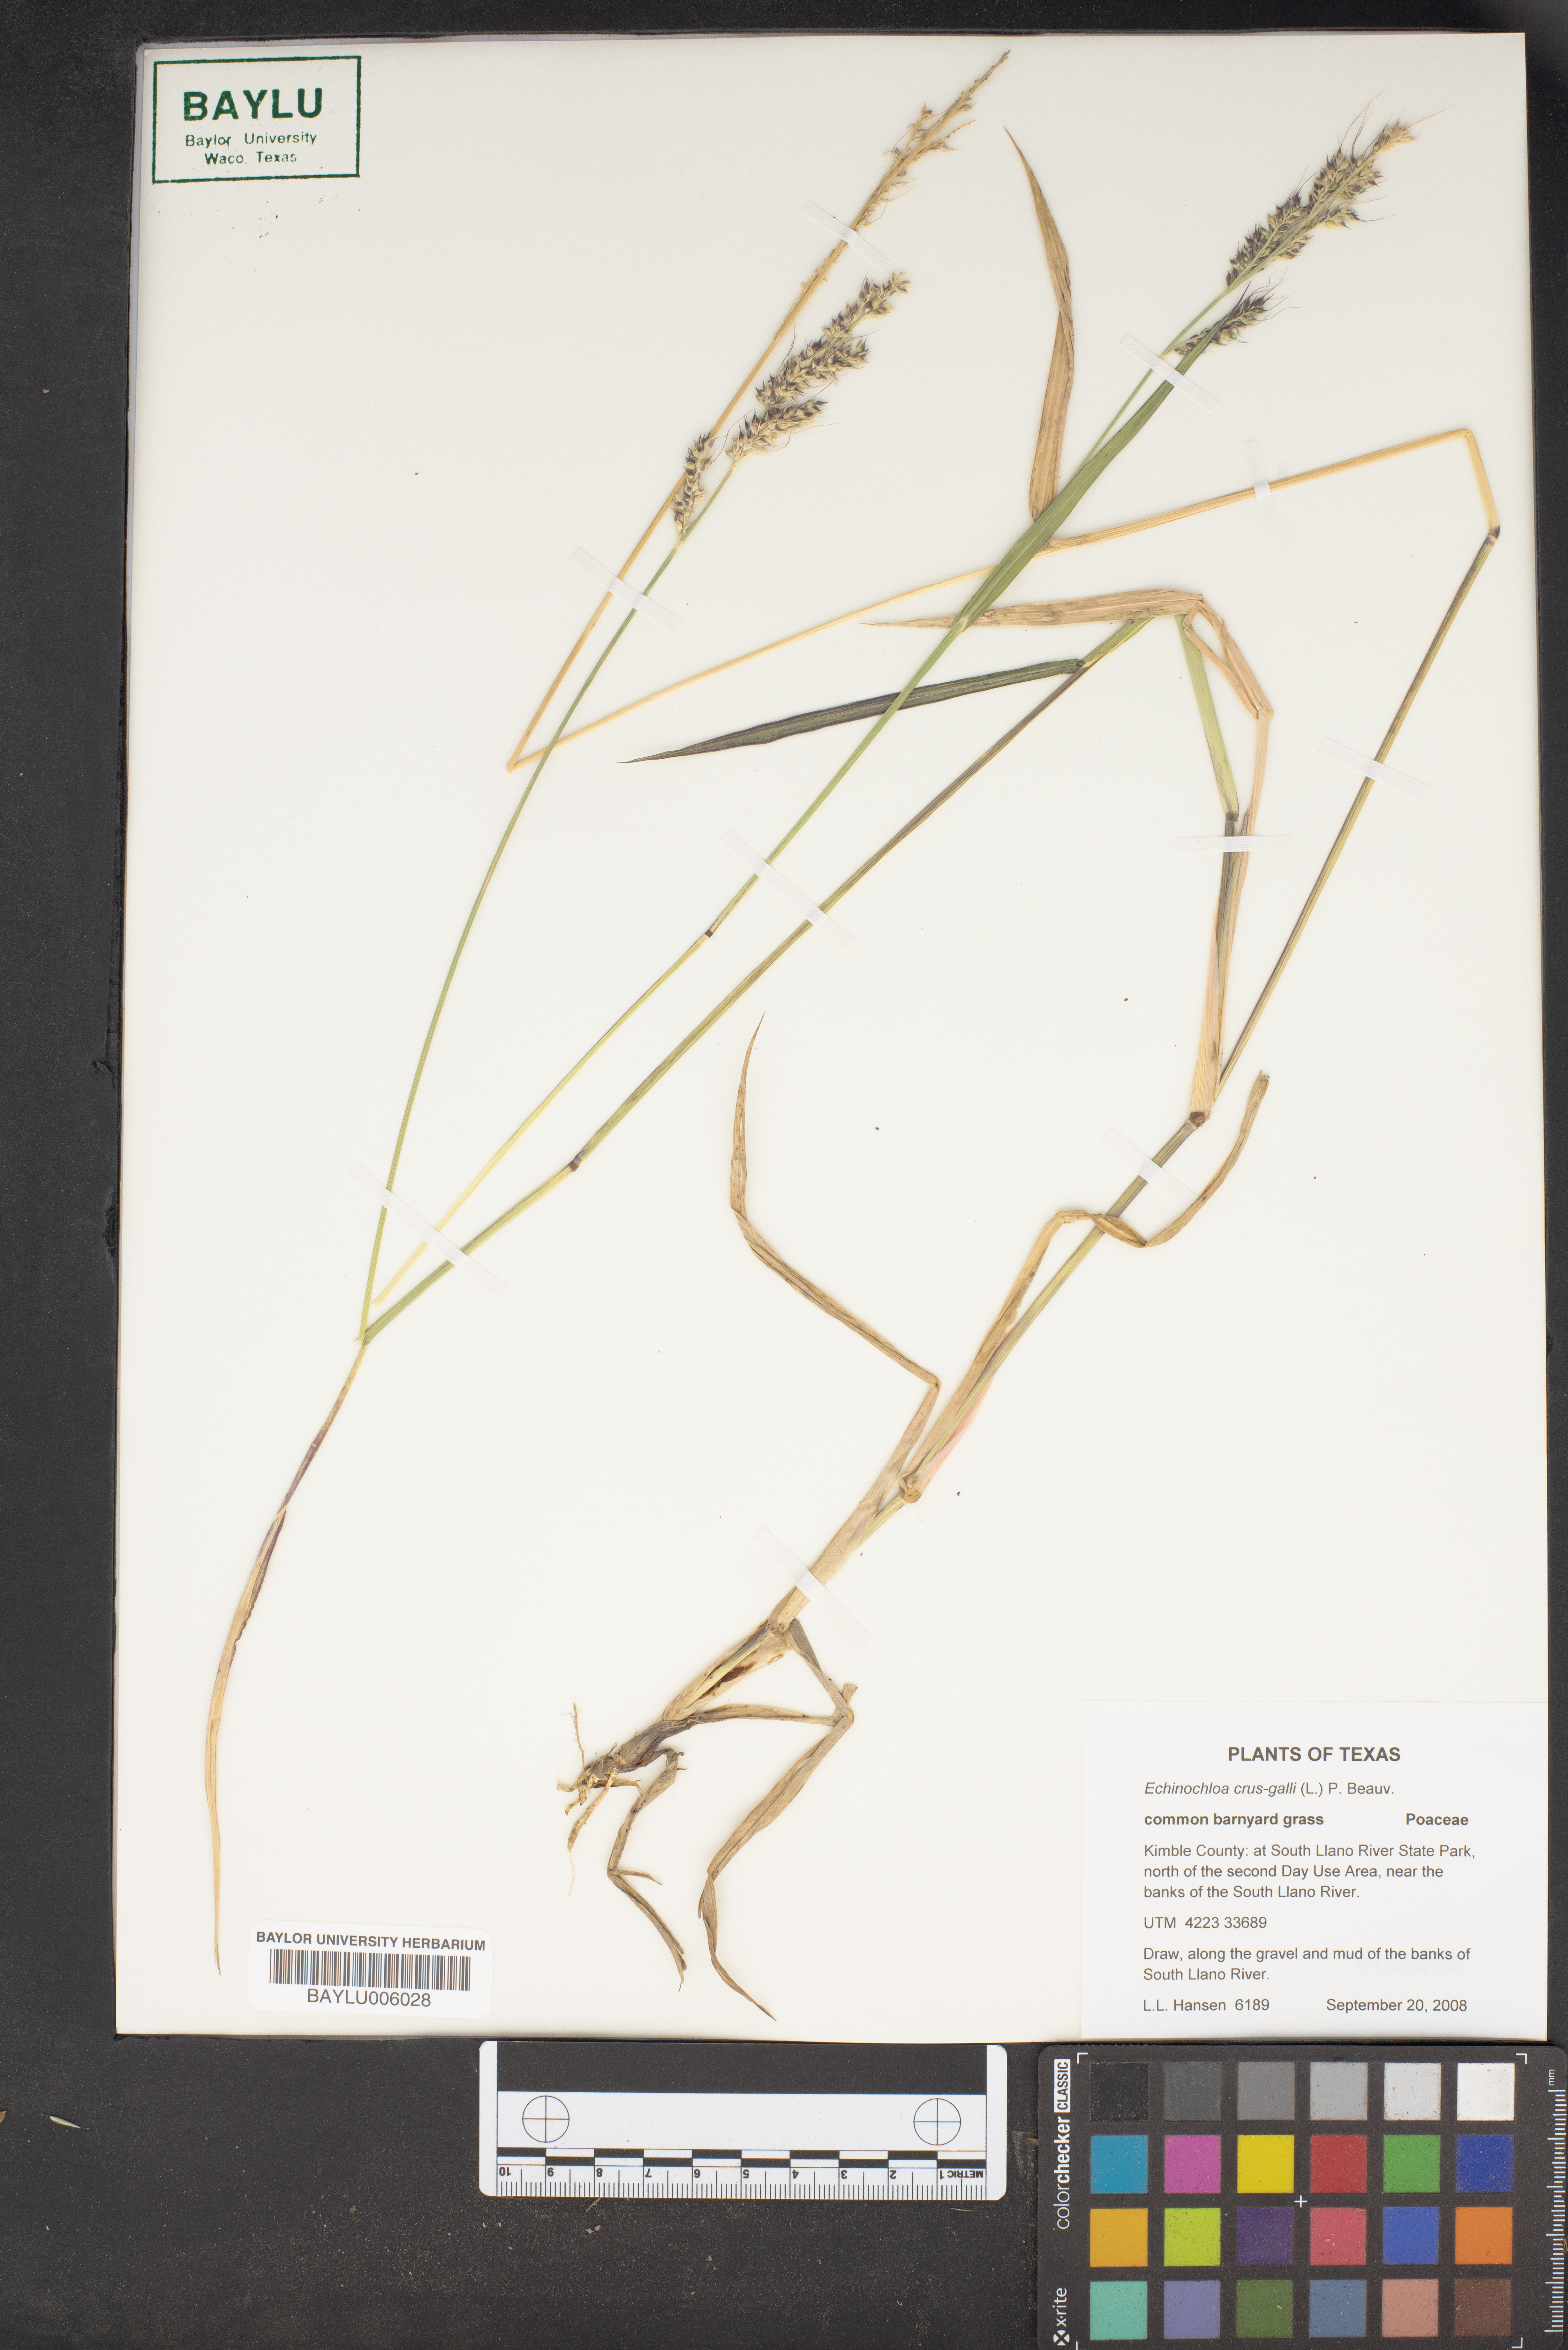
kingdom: Plantae
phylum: Tracheophyta
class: Liliopsida
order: Poales
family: Poaceae
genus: Echinochloa
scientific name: Echinochloa crus-galli
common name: Cockspur
